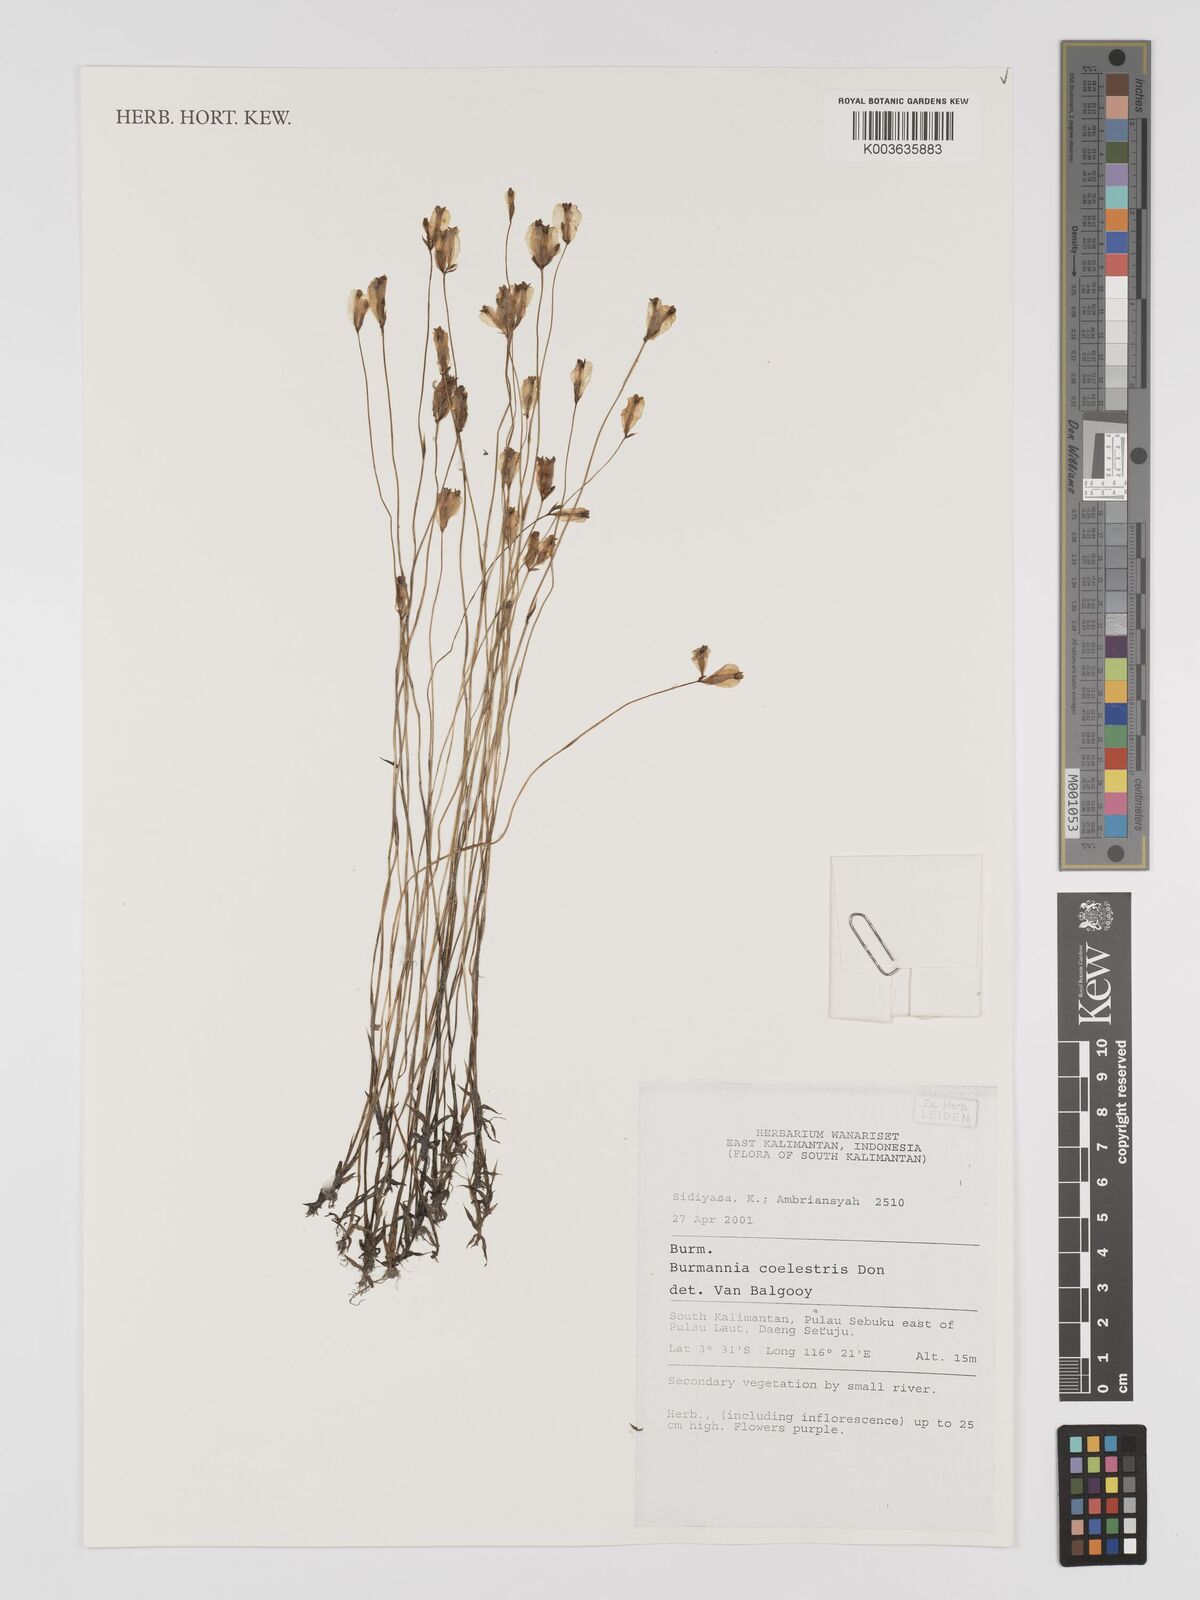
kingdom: Plantae
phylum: Tracheophyta
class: Liliopsida
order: Dioscoreales
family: Burmanniaceae
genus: Burmannia
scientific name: Burmannia coelestis
